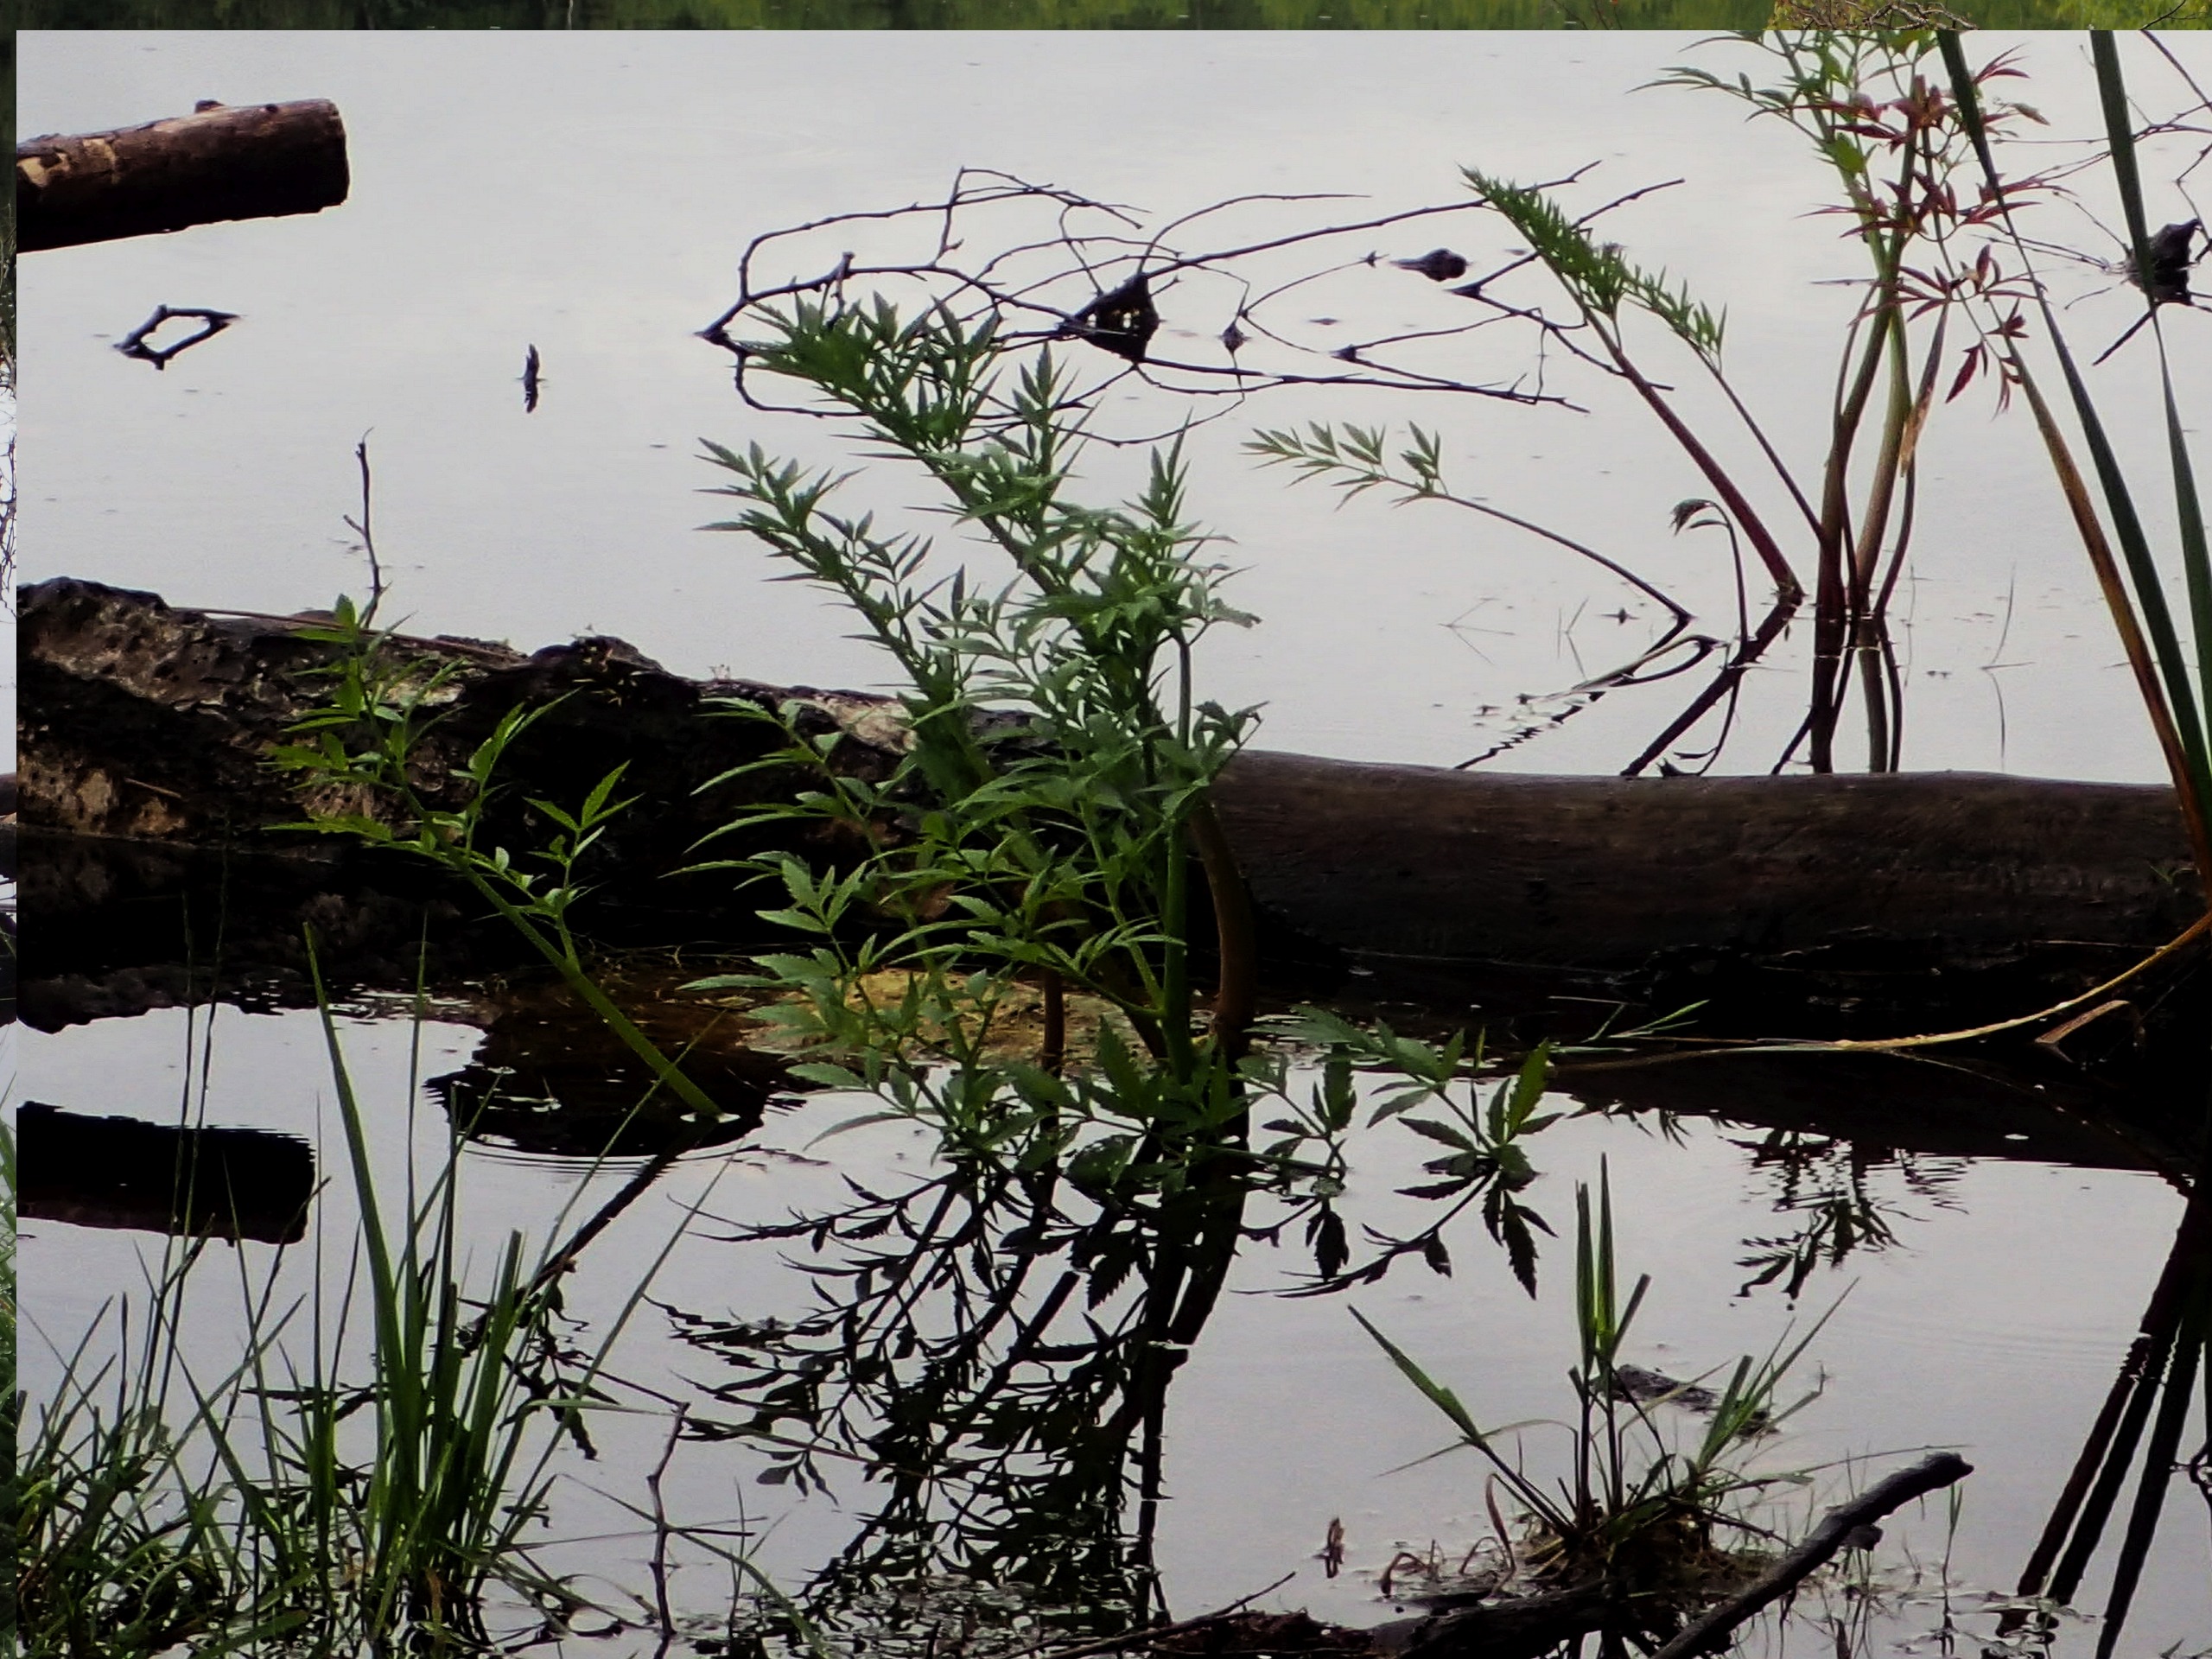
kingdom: Plantae
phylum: Tracheophyta
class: Magnoliopsida
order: Apiales
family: Apiaceae
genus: Cicuta
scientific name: Cicuta virosa
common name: Gifttyde
